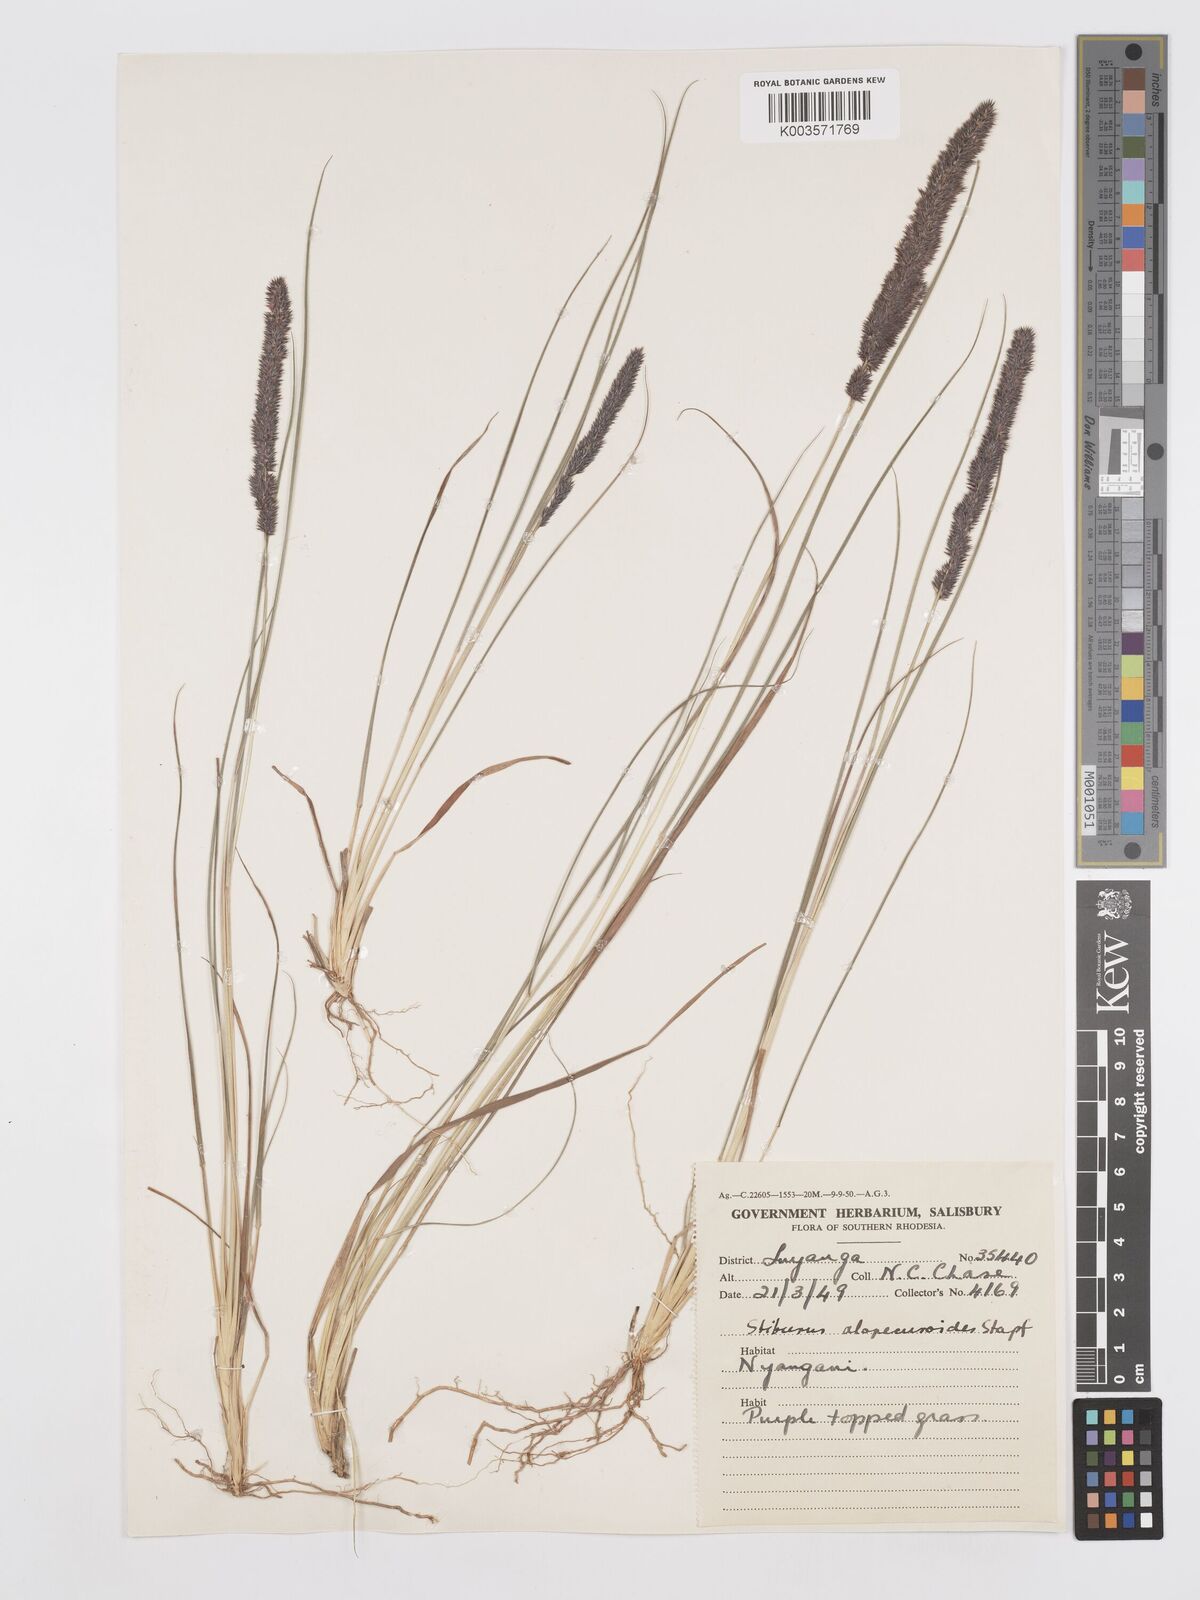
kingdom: Plantae
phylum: Tracheophyta
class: Liliopsida
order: Poales
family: Poaceae
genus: Stiburus
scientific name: Stiburus alopecuroides
